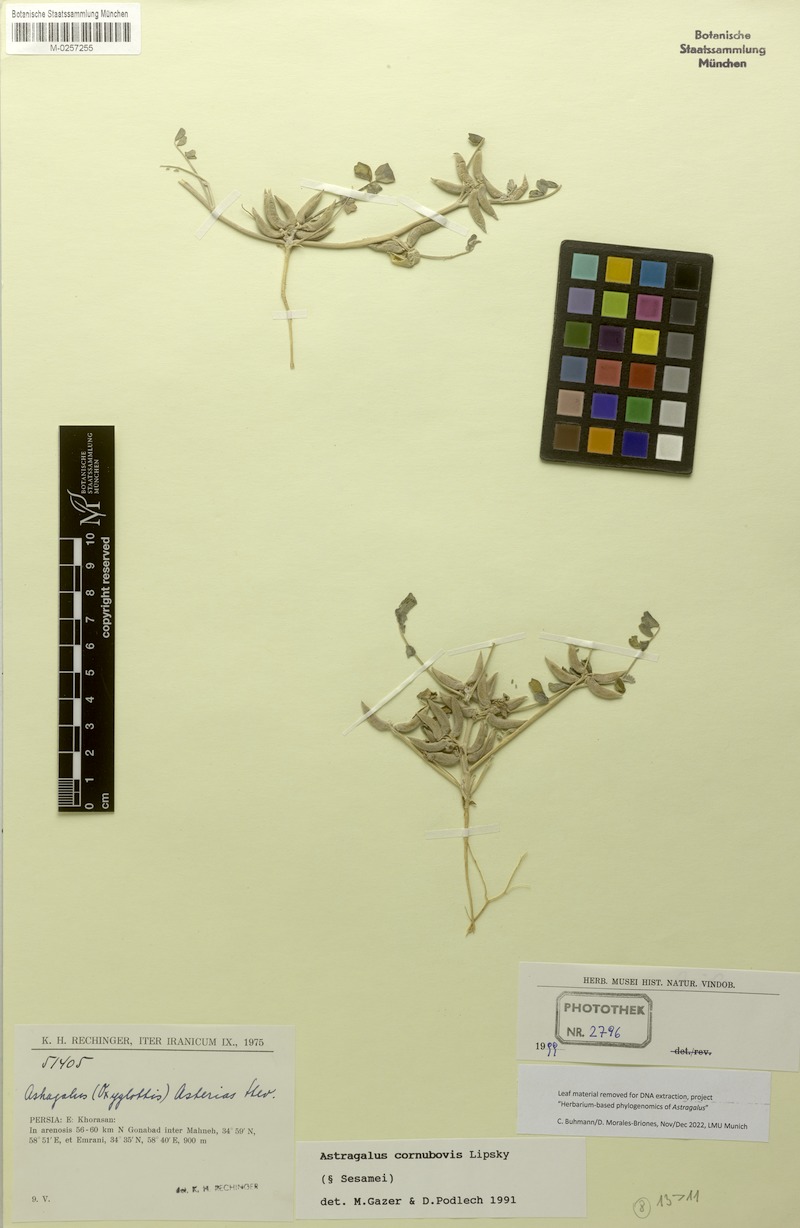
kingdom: Plantae
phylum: Tracheophyta
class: Magnoliopsida
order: Fabales
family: Fabaceae
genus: Astragalus
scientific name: Astragalus
